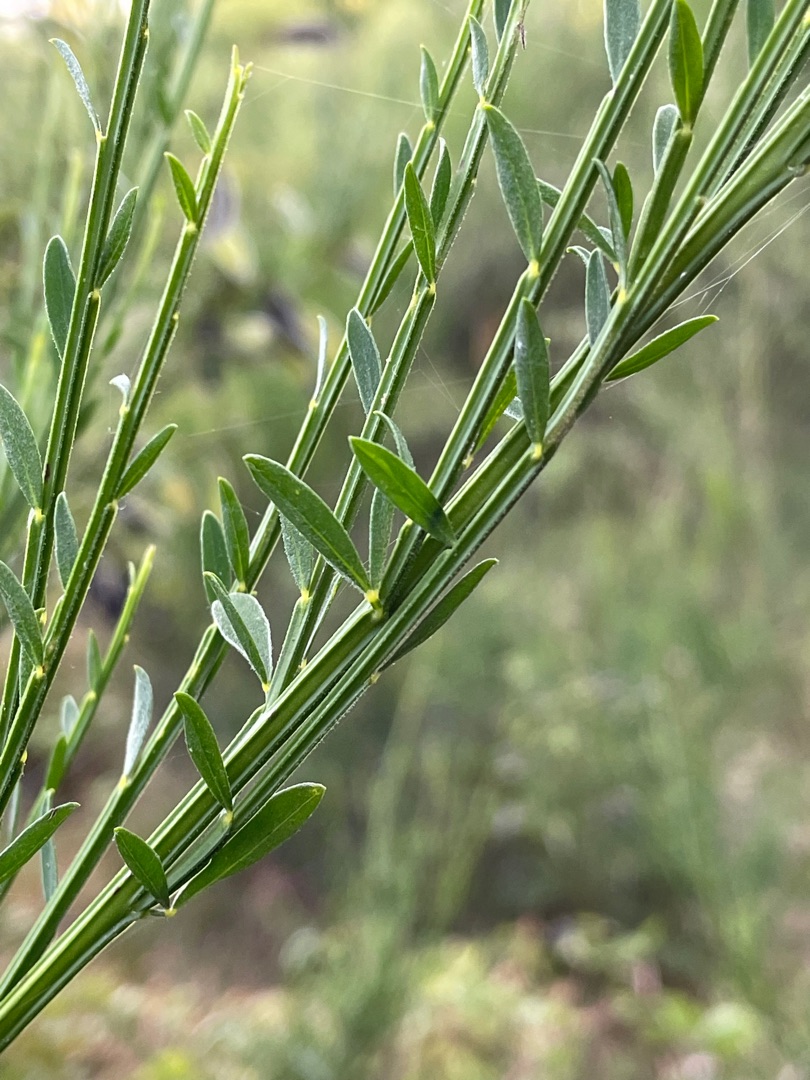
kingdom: Plantae
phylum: Tracheophyta
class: Magnoliopsida
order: Fabales
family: Fabaceae
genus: Cytisus
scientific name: Cytisus scoparius
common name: Almindelig gyvel
